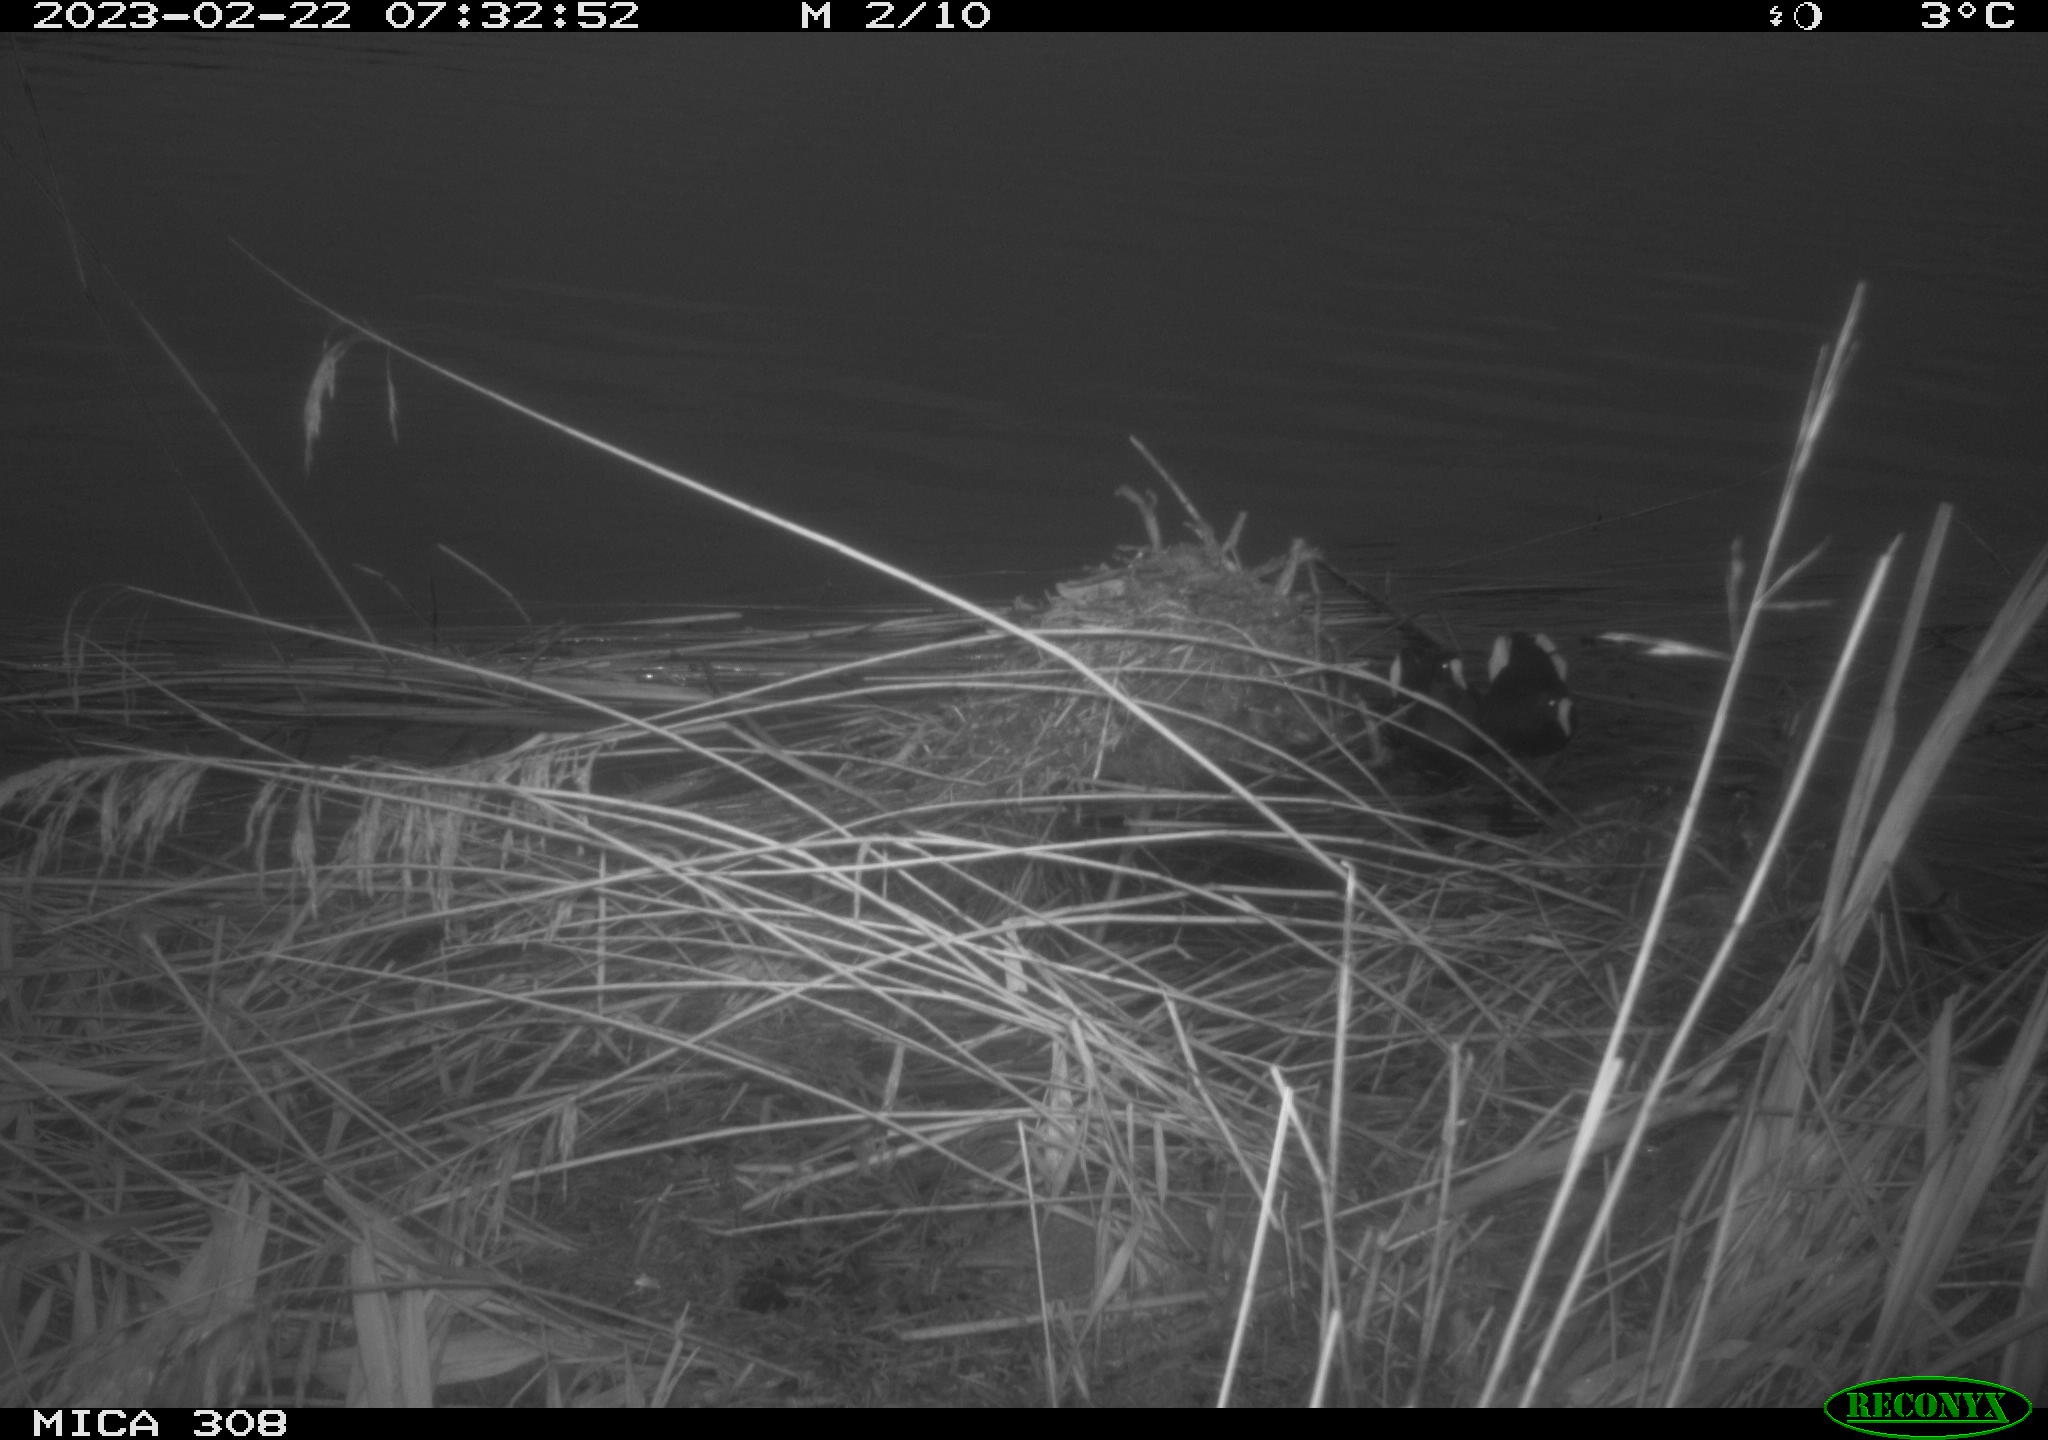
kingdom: Animalia
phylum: Chordata
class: Aves
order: Gruiformes
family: Rallidae
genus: Gallinula
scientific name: Gallinula chloropus
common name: Common moorhen
